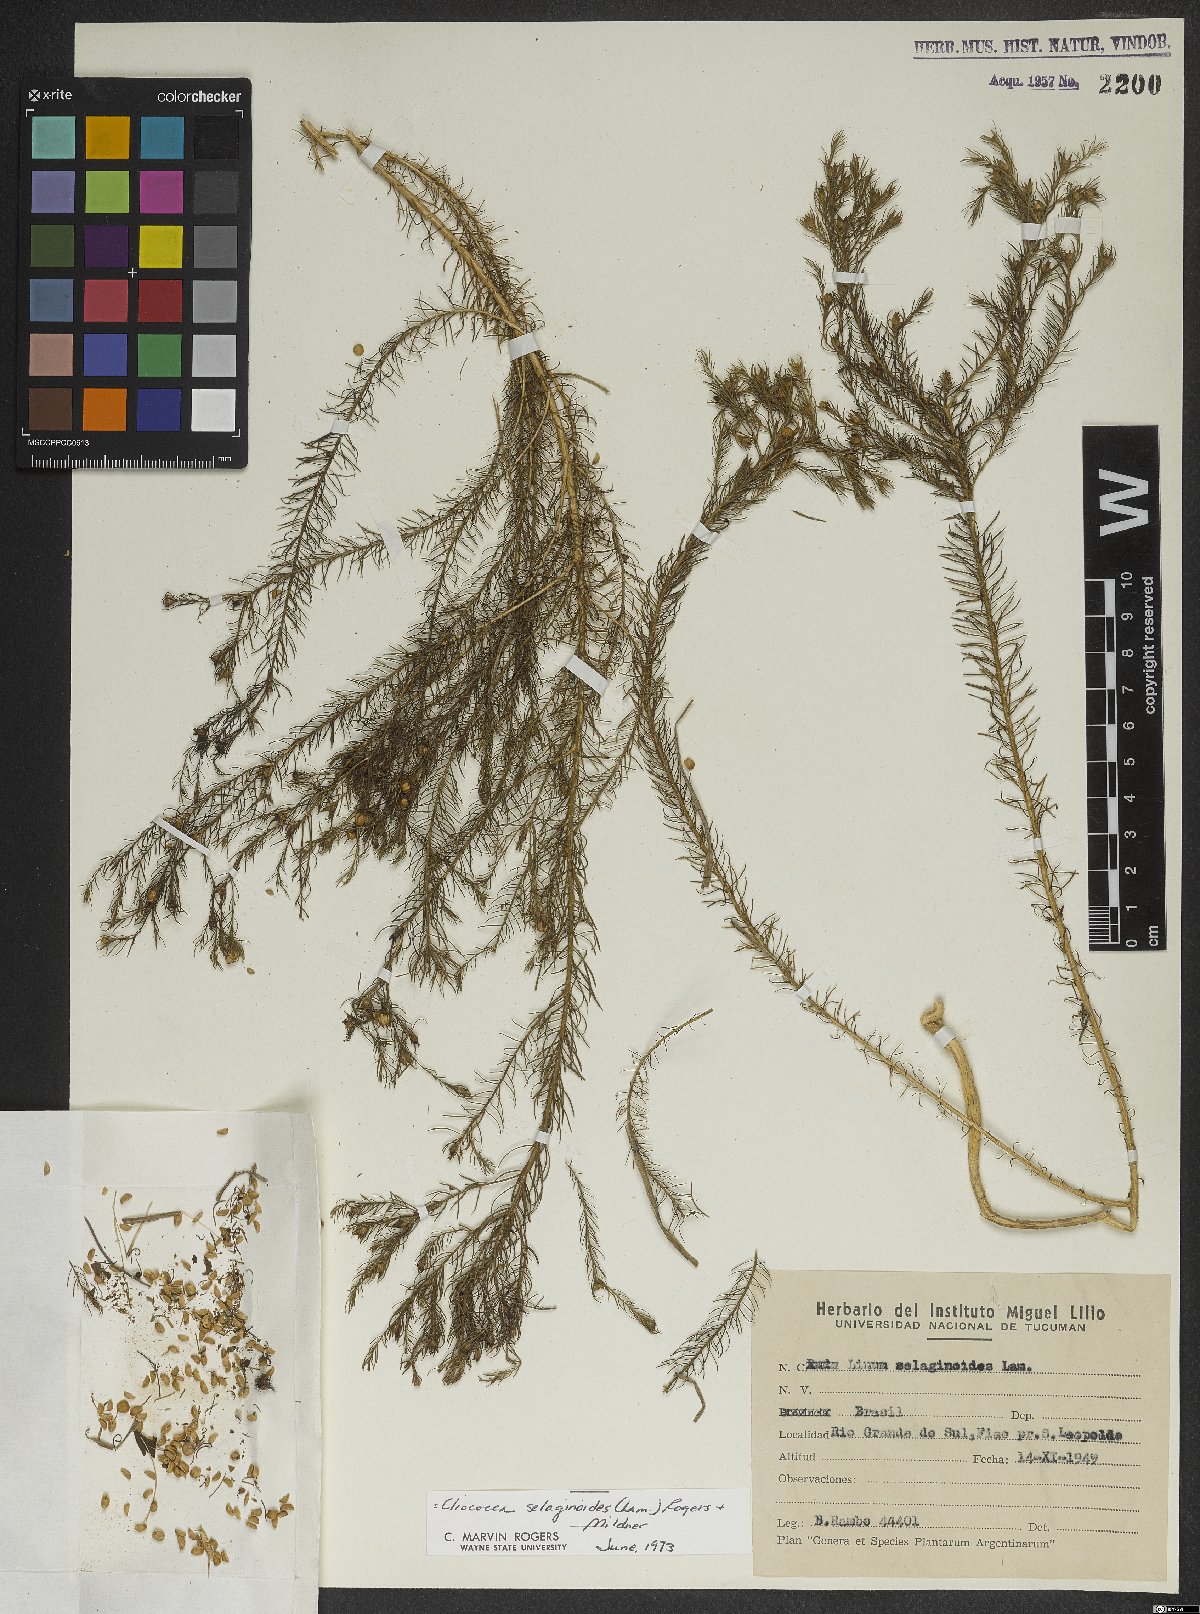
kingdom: Plantae
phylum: Tracheophyta
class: Magnoliopsida
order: Malpighiales
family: Linaceae
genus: Cliococca
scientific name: Cliococca selaginoides
